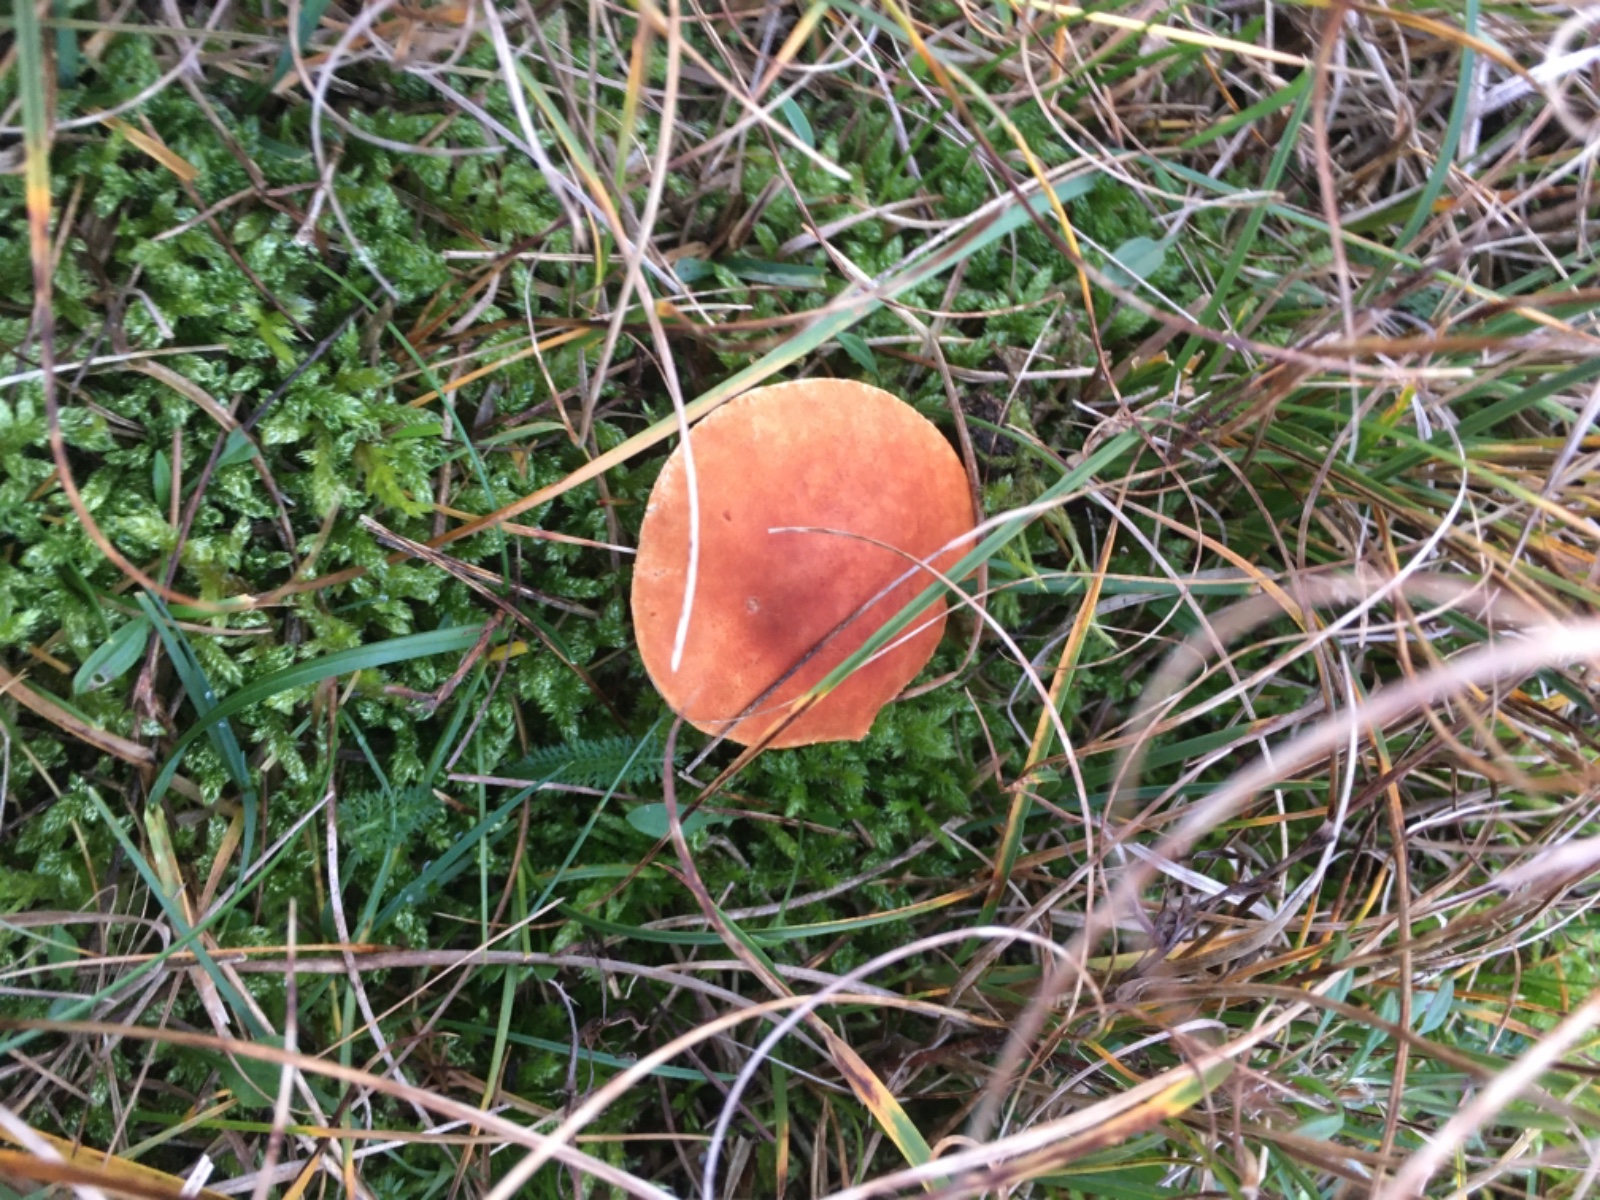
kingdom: Fungi
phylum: Basidiomycota
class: Agaricomycetes
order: Agaricales
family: Agaricaceae
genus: Cystodermella
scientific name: Cystodermella adnatifolia
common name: koralrød grynhat
